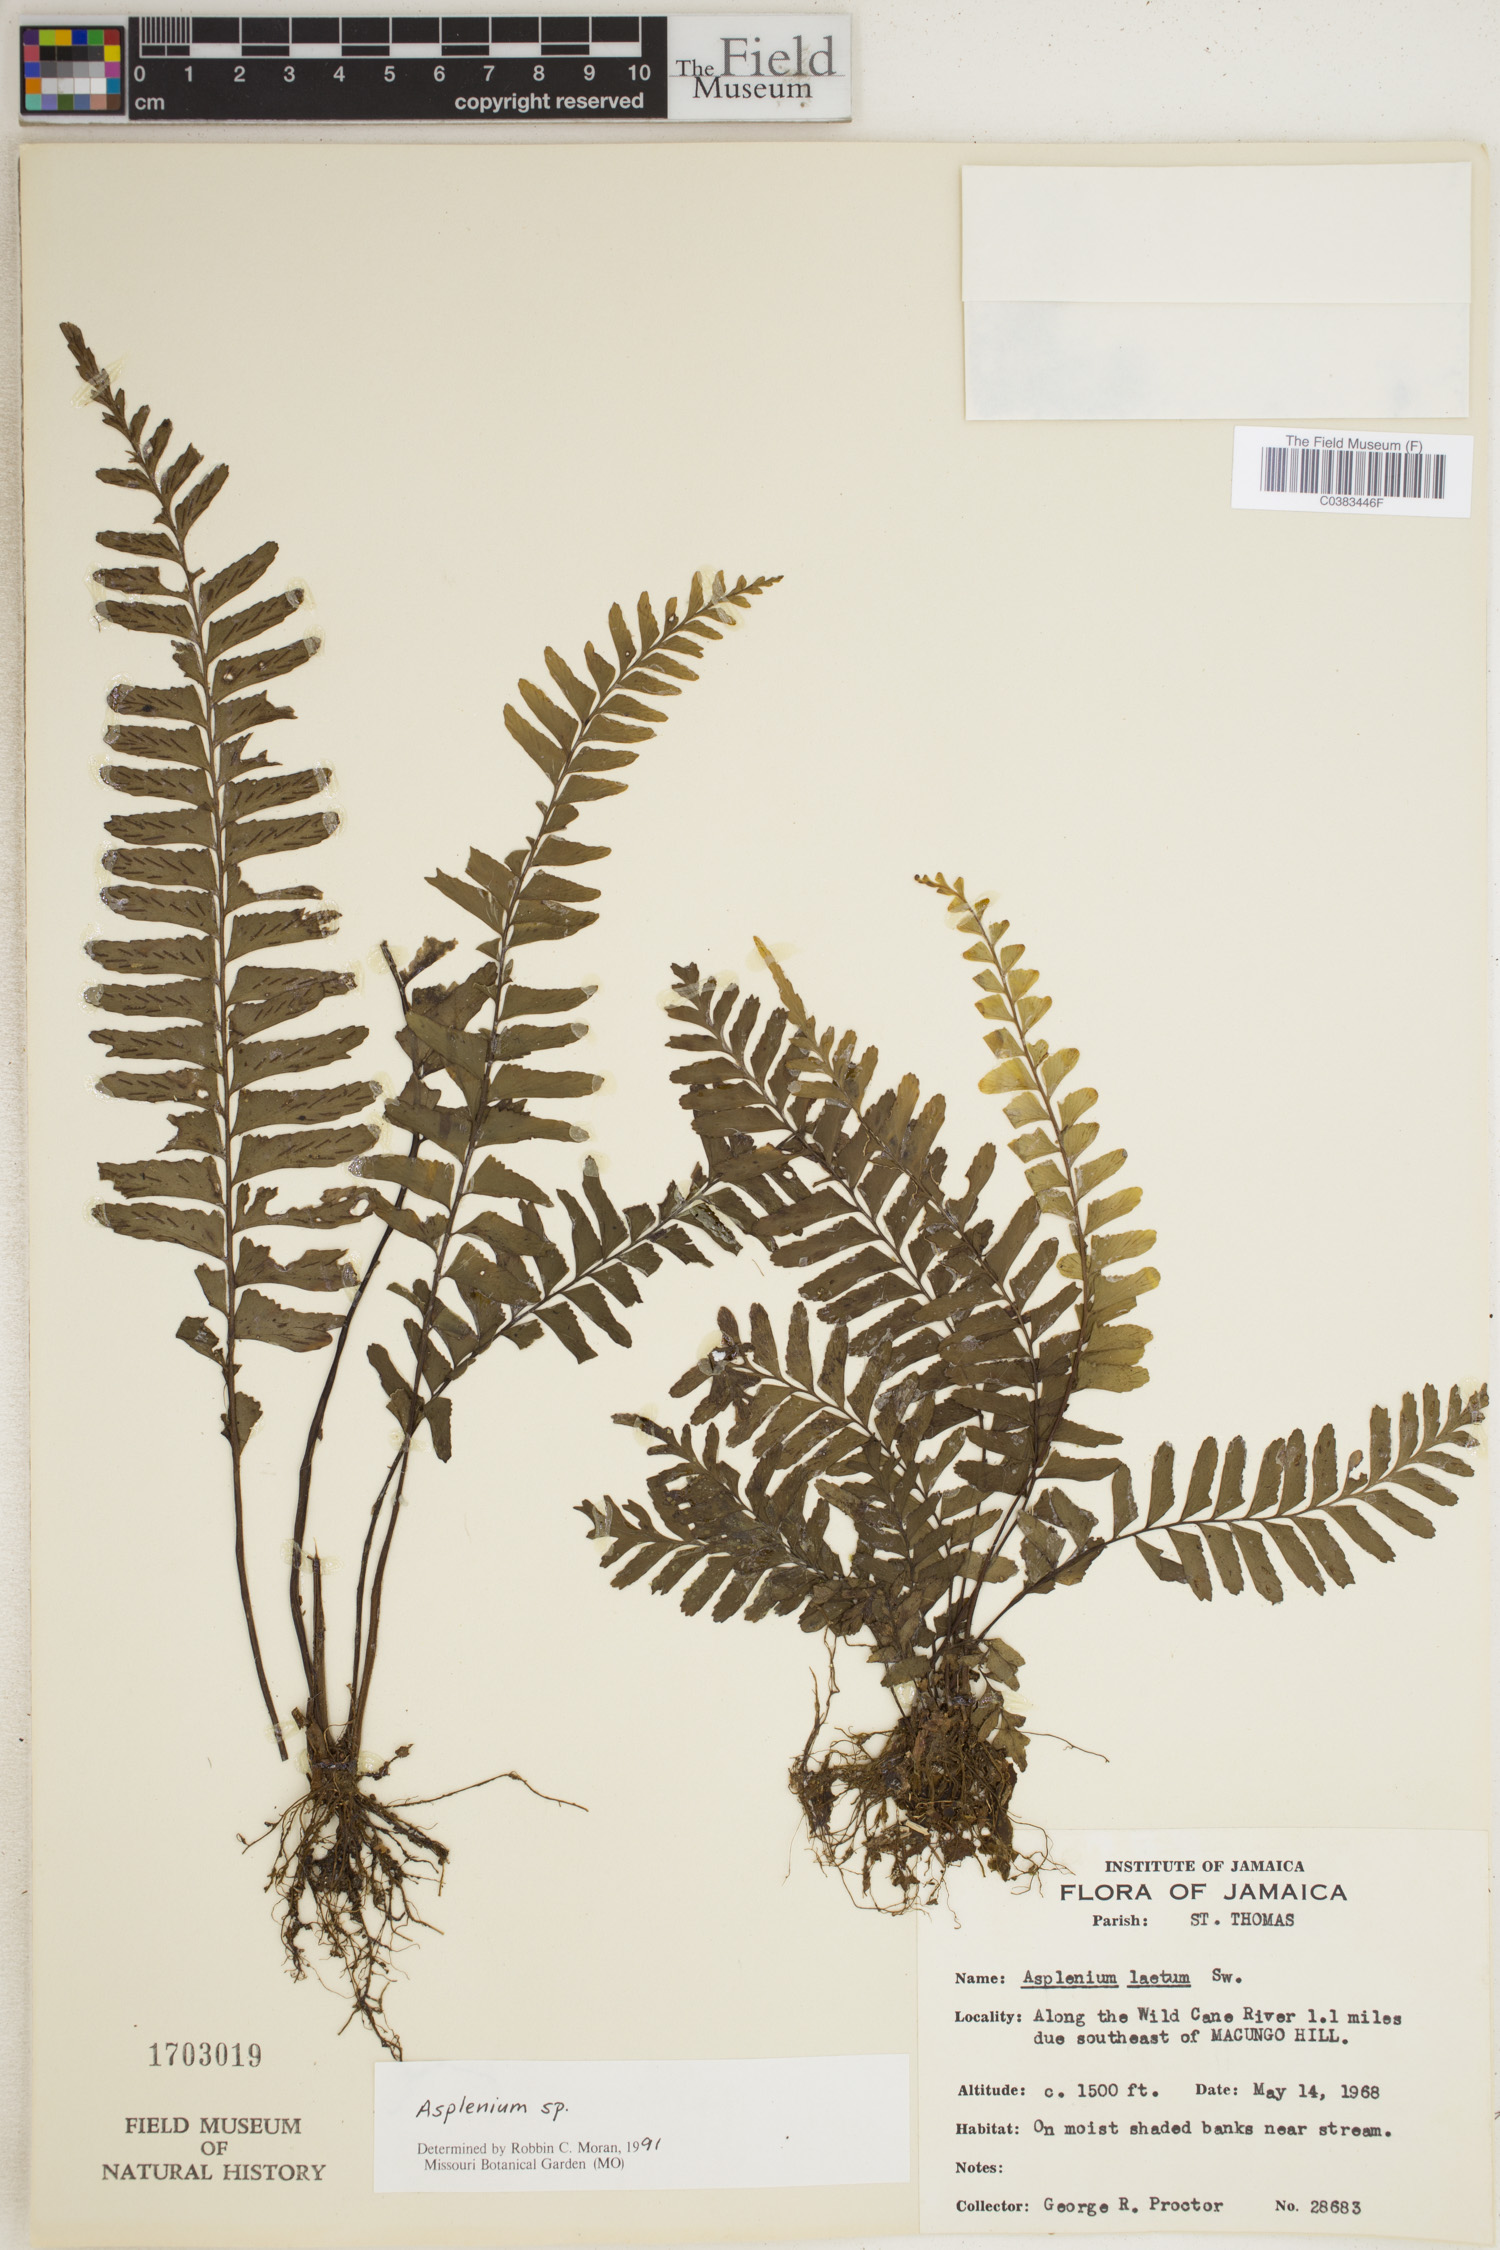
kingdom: Plantae
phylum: Tracheophyta
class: Polypodiopsida
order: Polypodiales
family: Aspleniaceae
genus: Asplenium
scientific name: Asplenium
